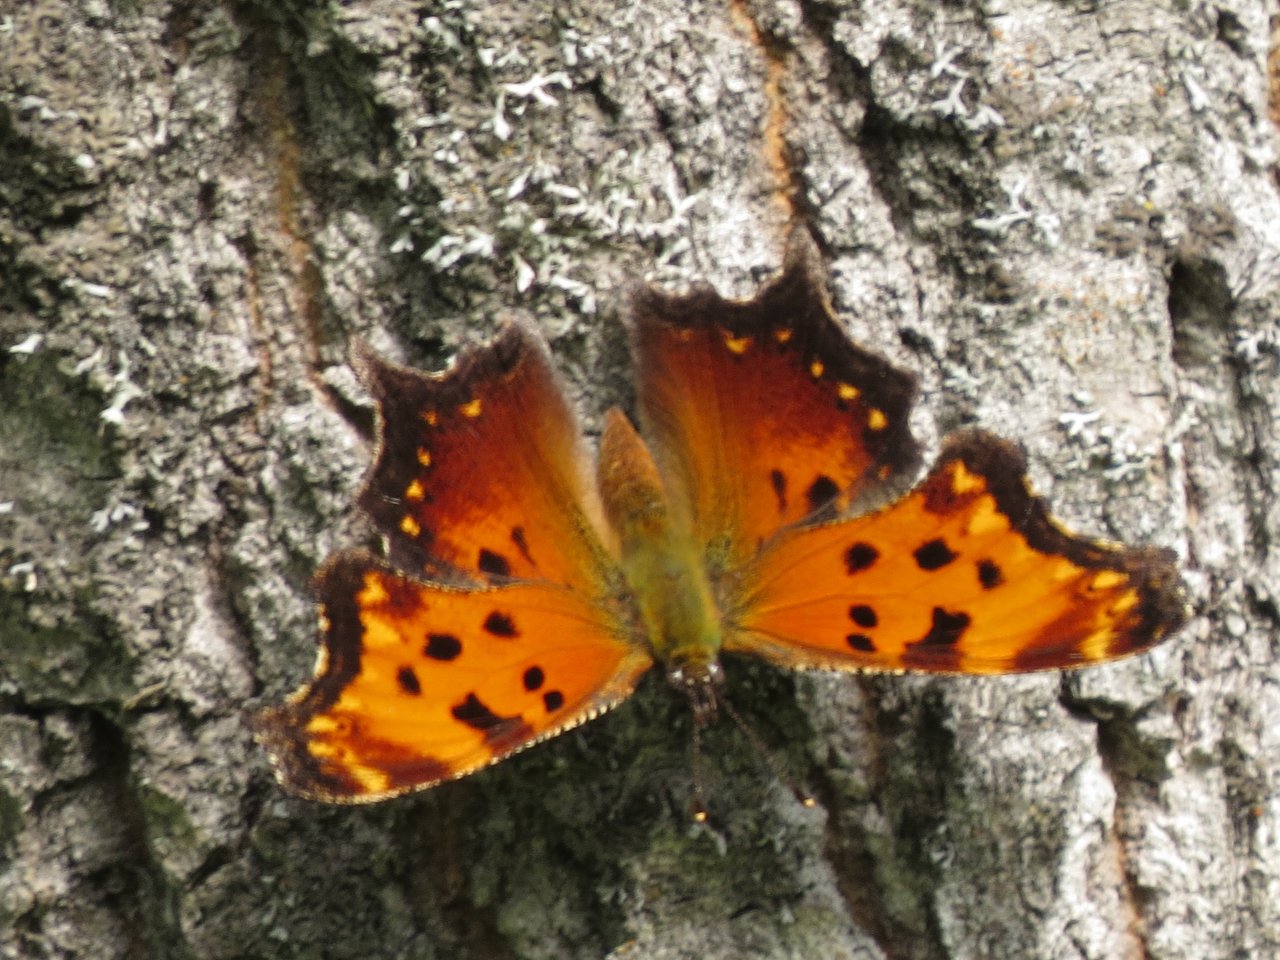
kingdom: Animalia
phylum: Arthropoda
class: Insecta
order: Lepidoptera
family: Nymphalidae
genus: Polygonia
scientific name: Polygonia progne
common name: Gray Comma
